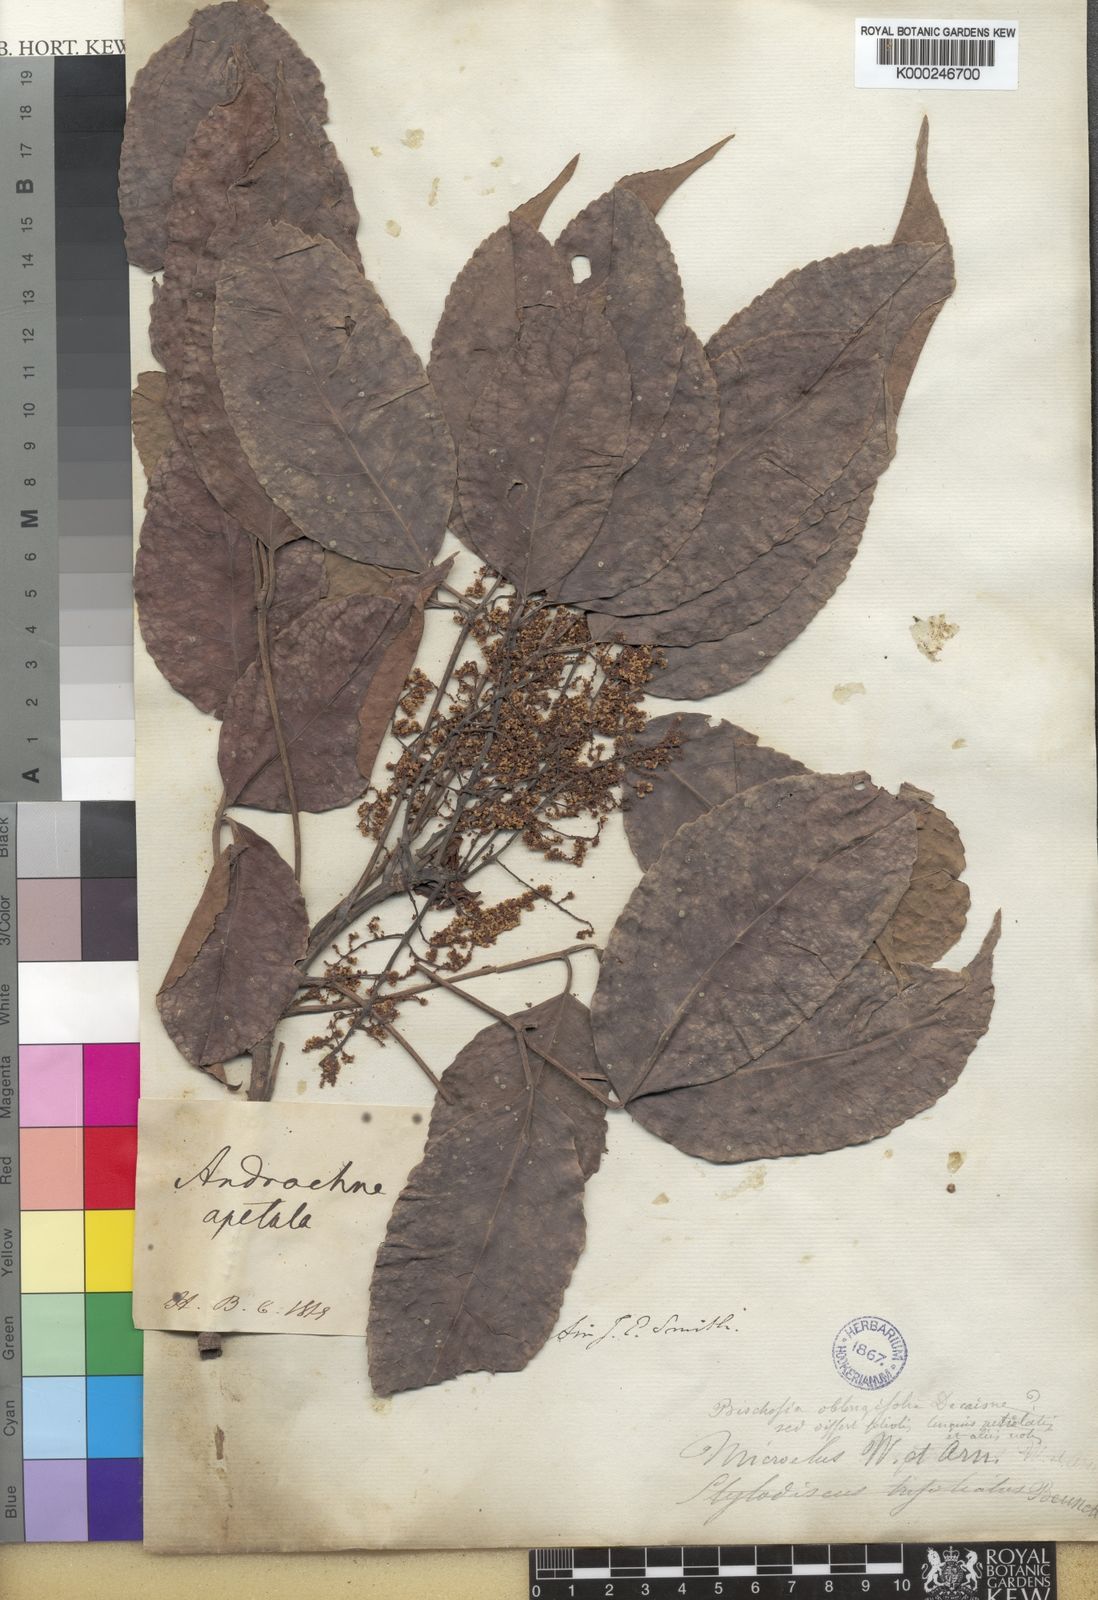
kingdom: Plantae
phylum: Tracheophyta
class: Magnoliopsida
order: Malpighiales
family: Phyllanthaceae
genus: Bischofia
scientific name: Bischofia javanica
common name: Javanese bishopwood
